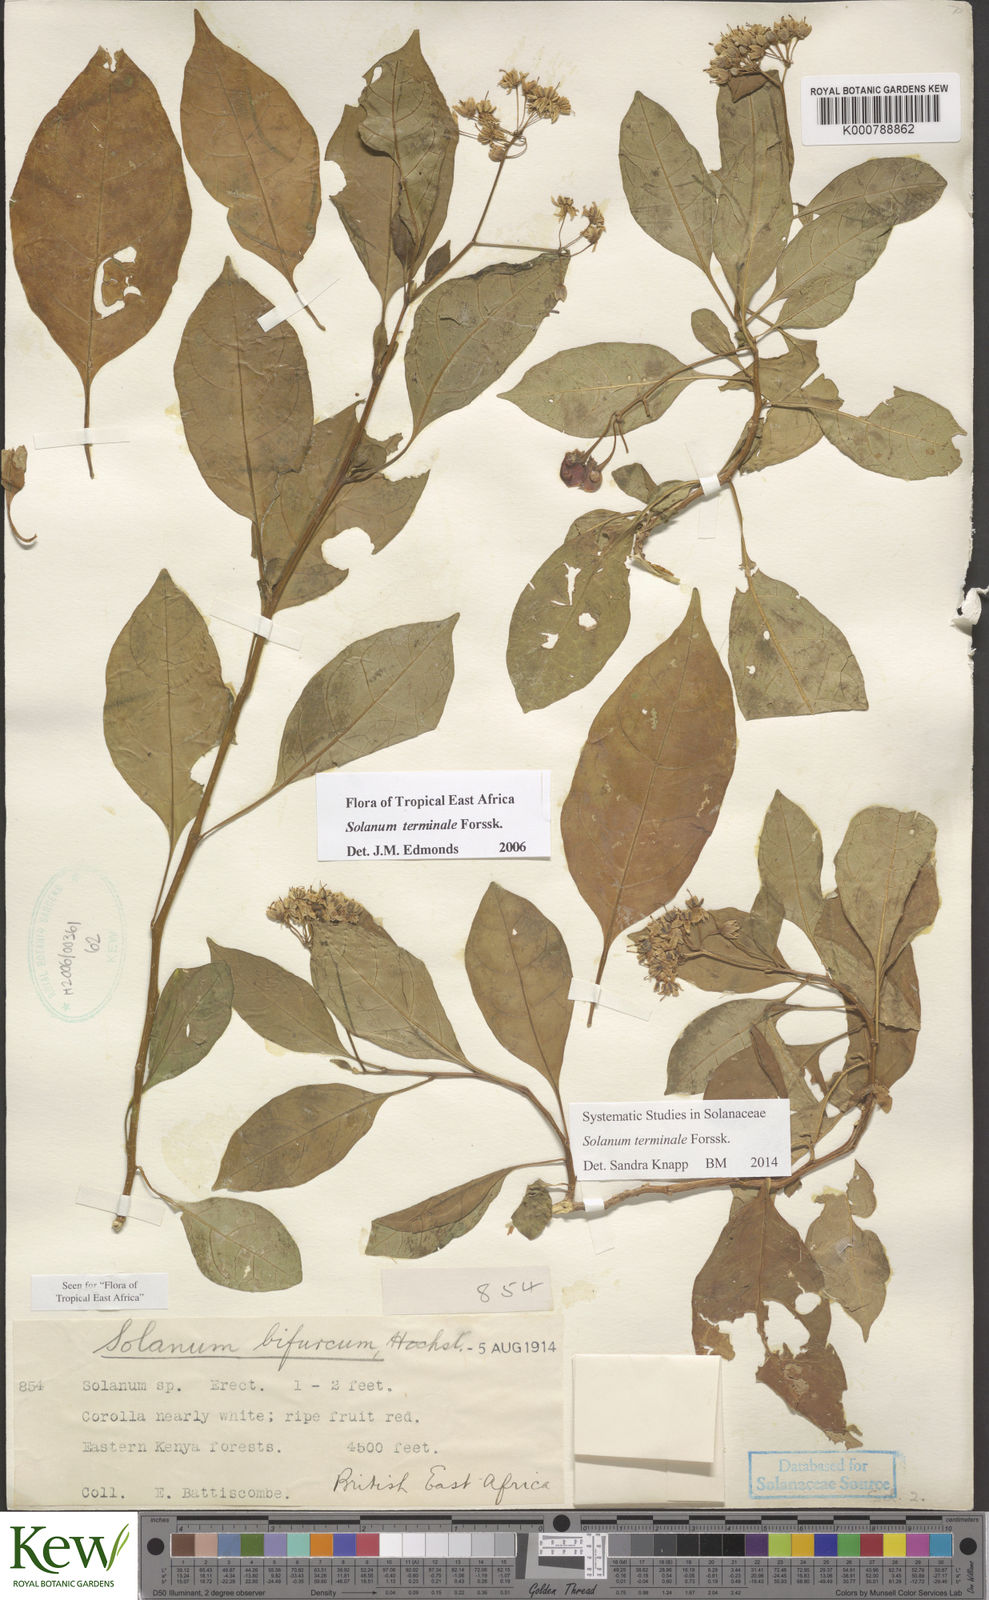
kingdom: Plantae
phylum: Tracheophyta
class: Magnoliopsida
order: Solanales
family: Solanaceae
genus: Solanum
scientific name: Solanum terminale
